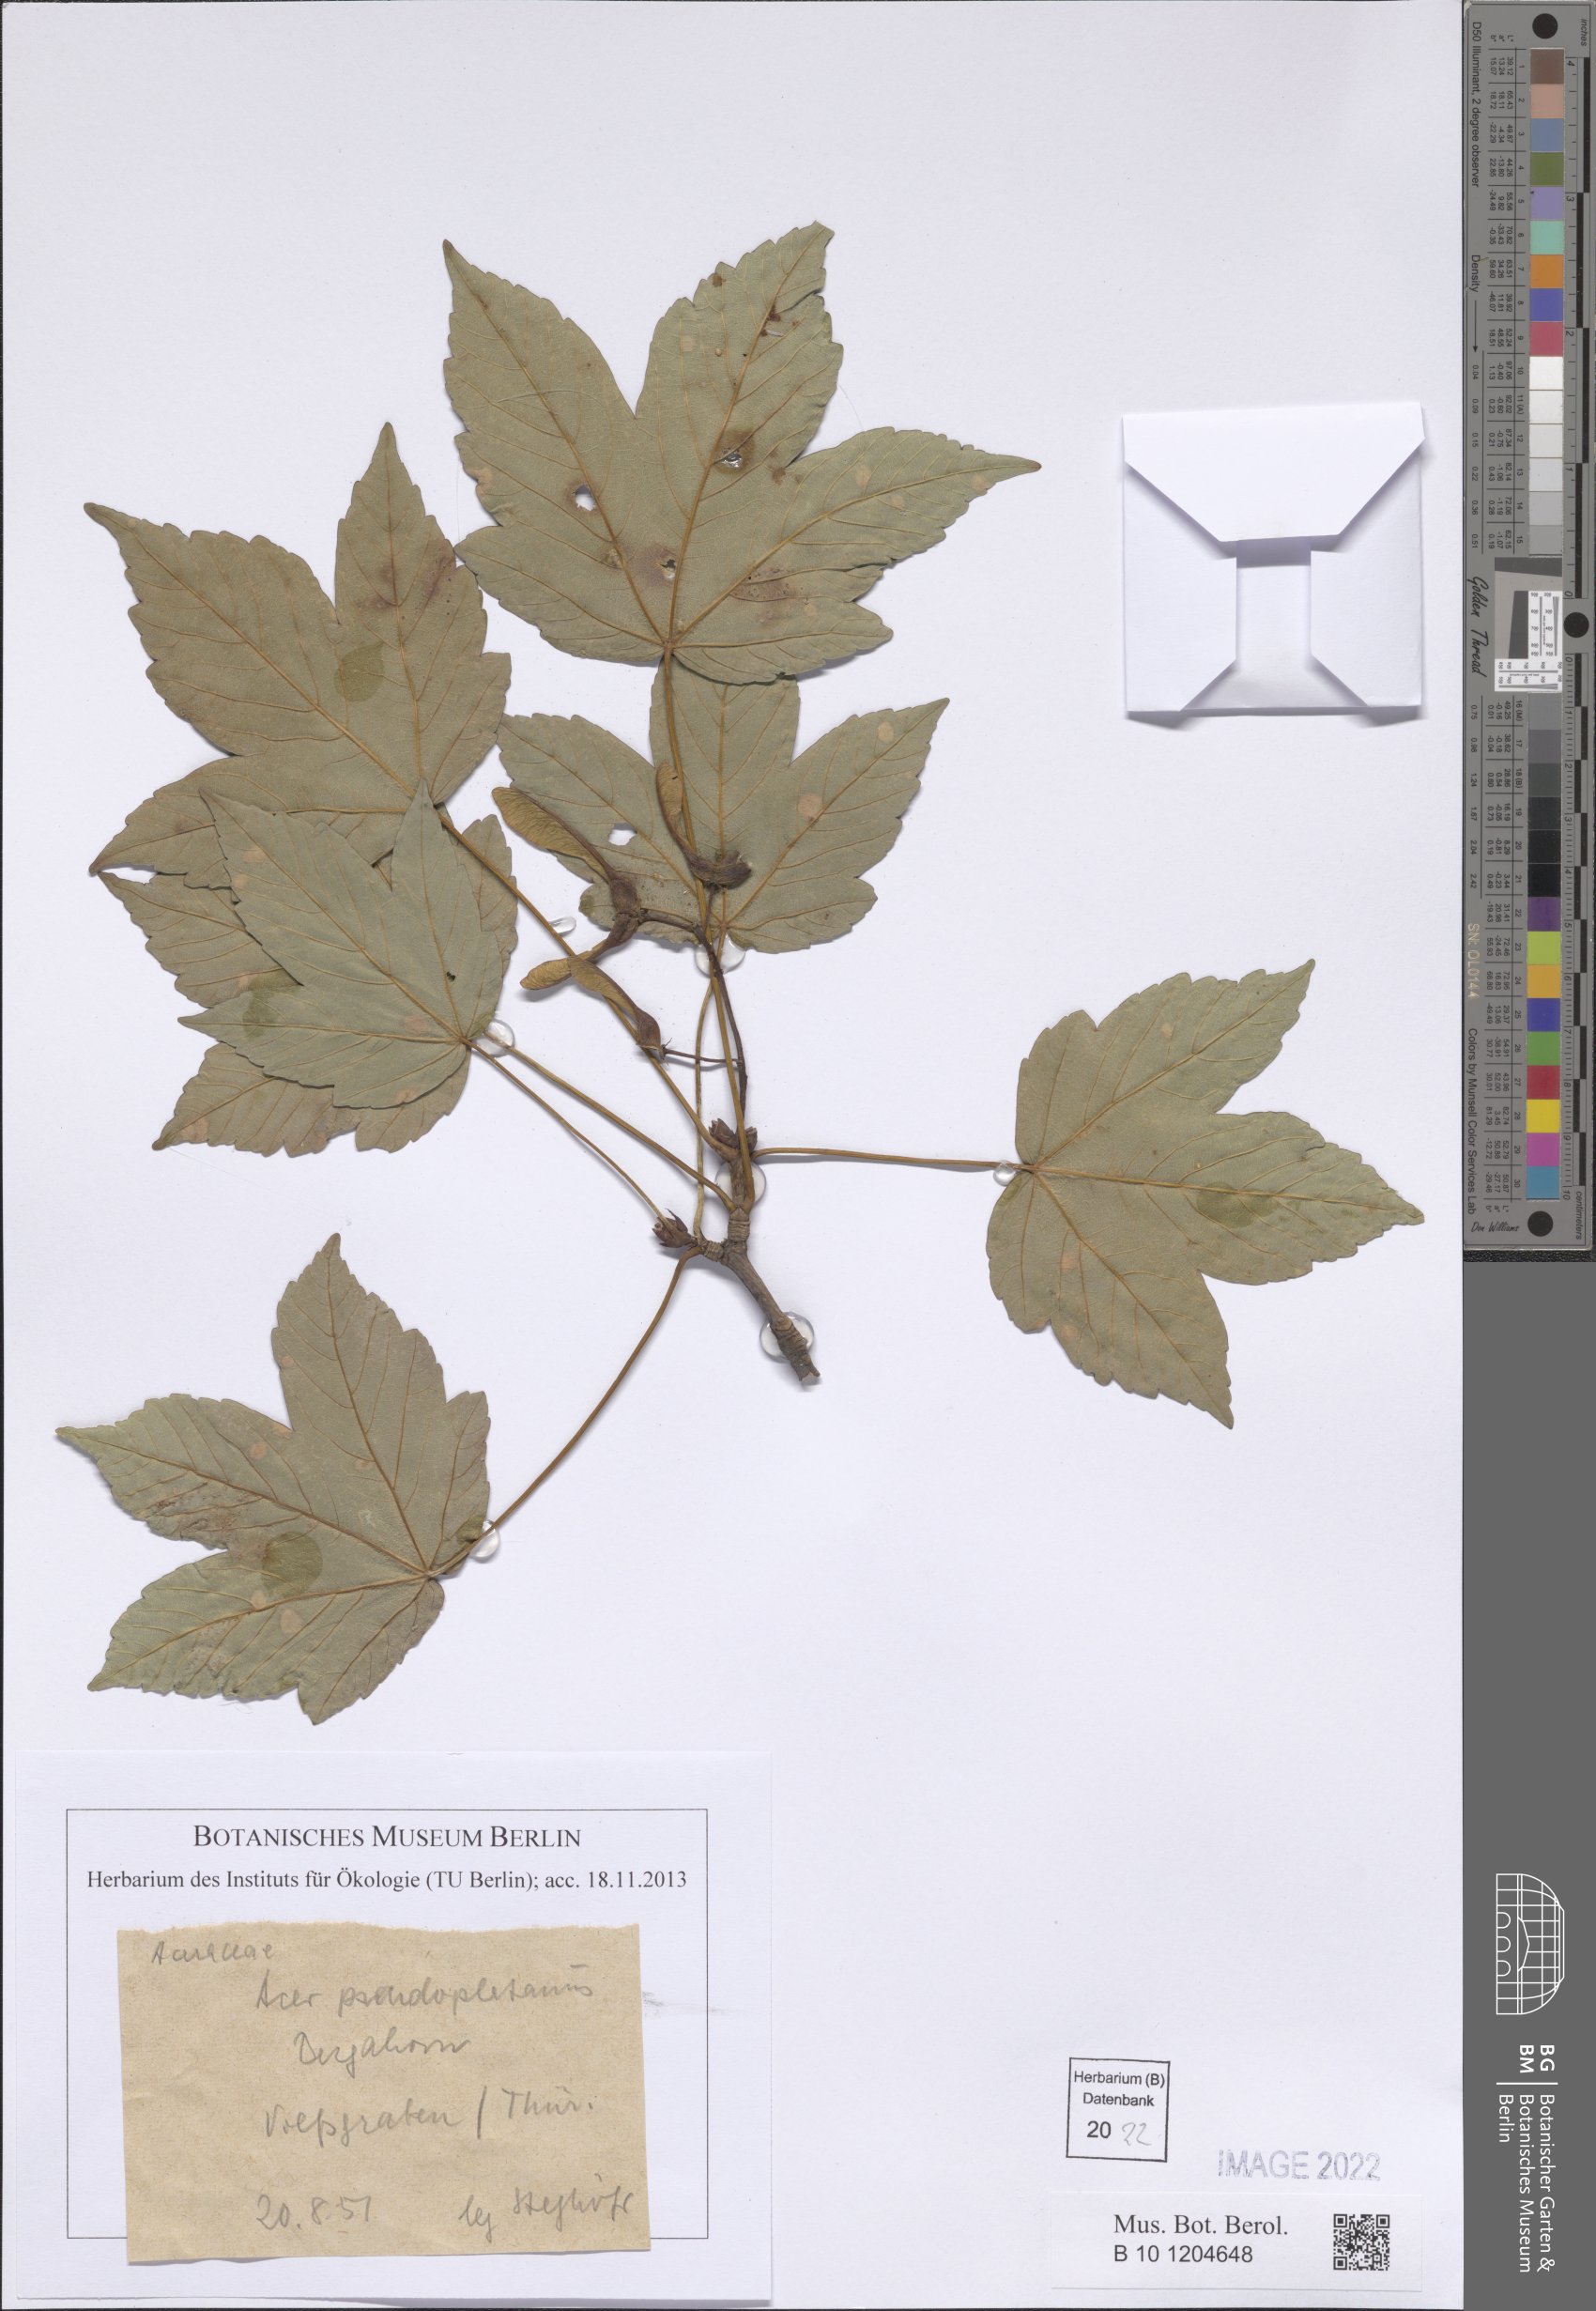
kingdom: Plantae
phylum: Tracheophyta
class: Magnoliopsida
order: Sapindales
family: Sapindaceae
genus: Acer
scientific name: Acer pseudoplatanus
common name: Sycamore
